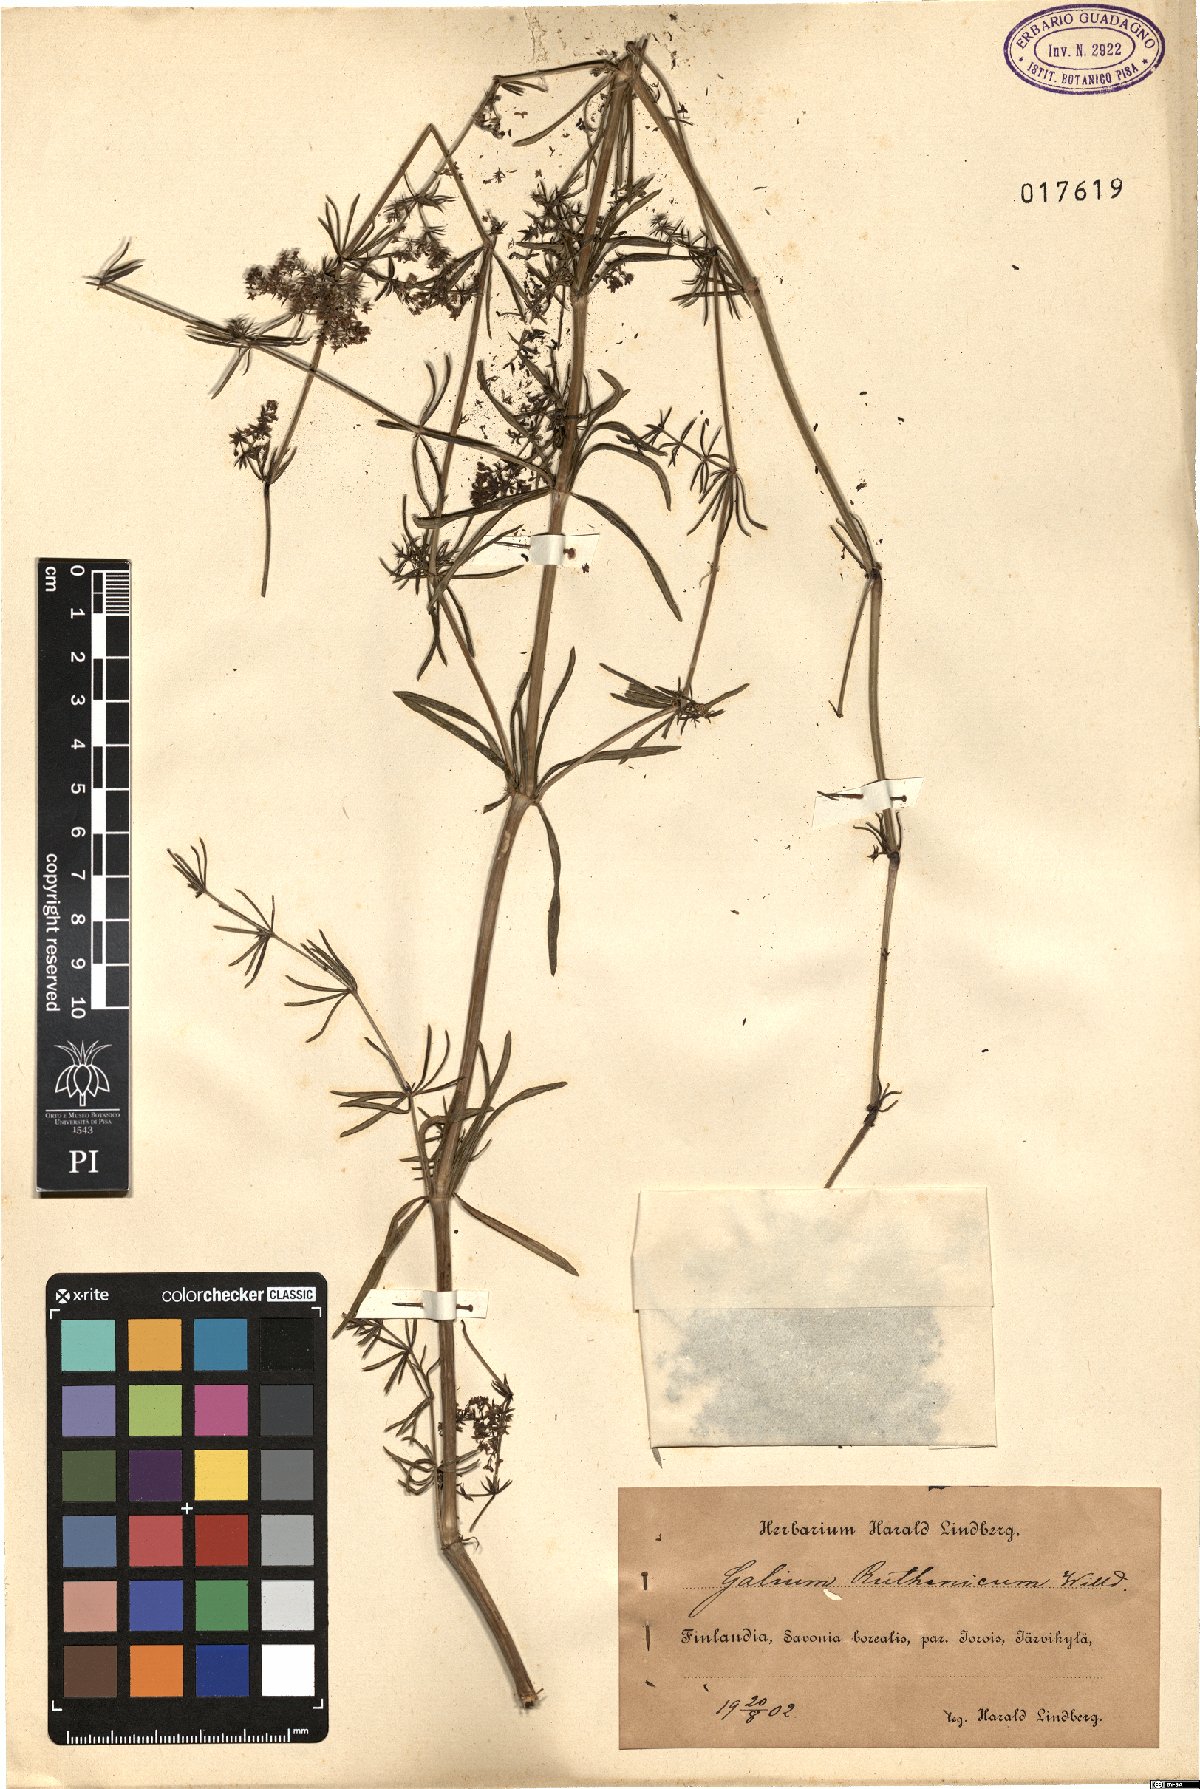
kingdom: Plantae
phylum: Tracheophyta
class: Magnoliopsida
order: Gentianales
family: Rubiaceae
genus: Galium
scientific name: Galium verum
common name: Lady's bedstraw
